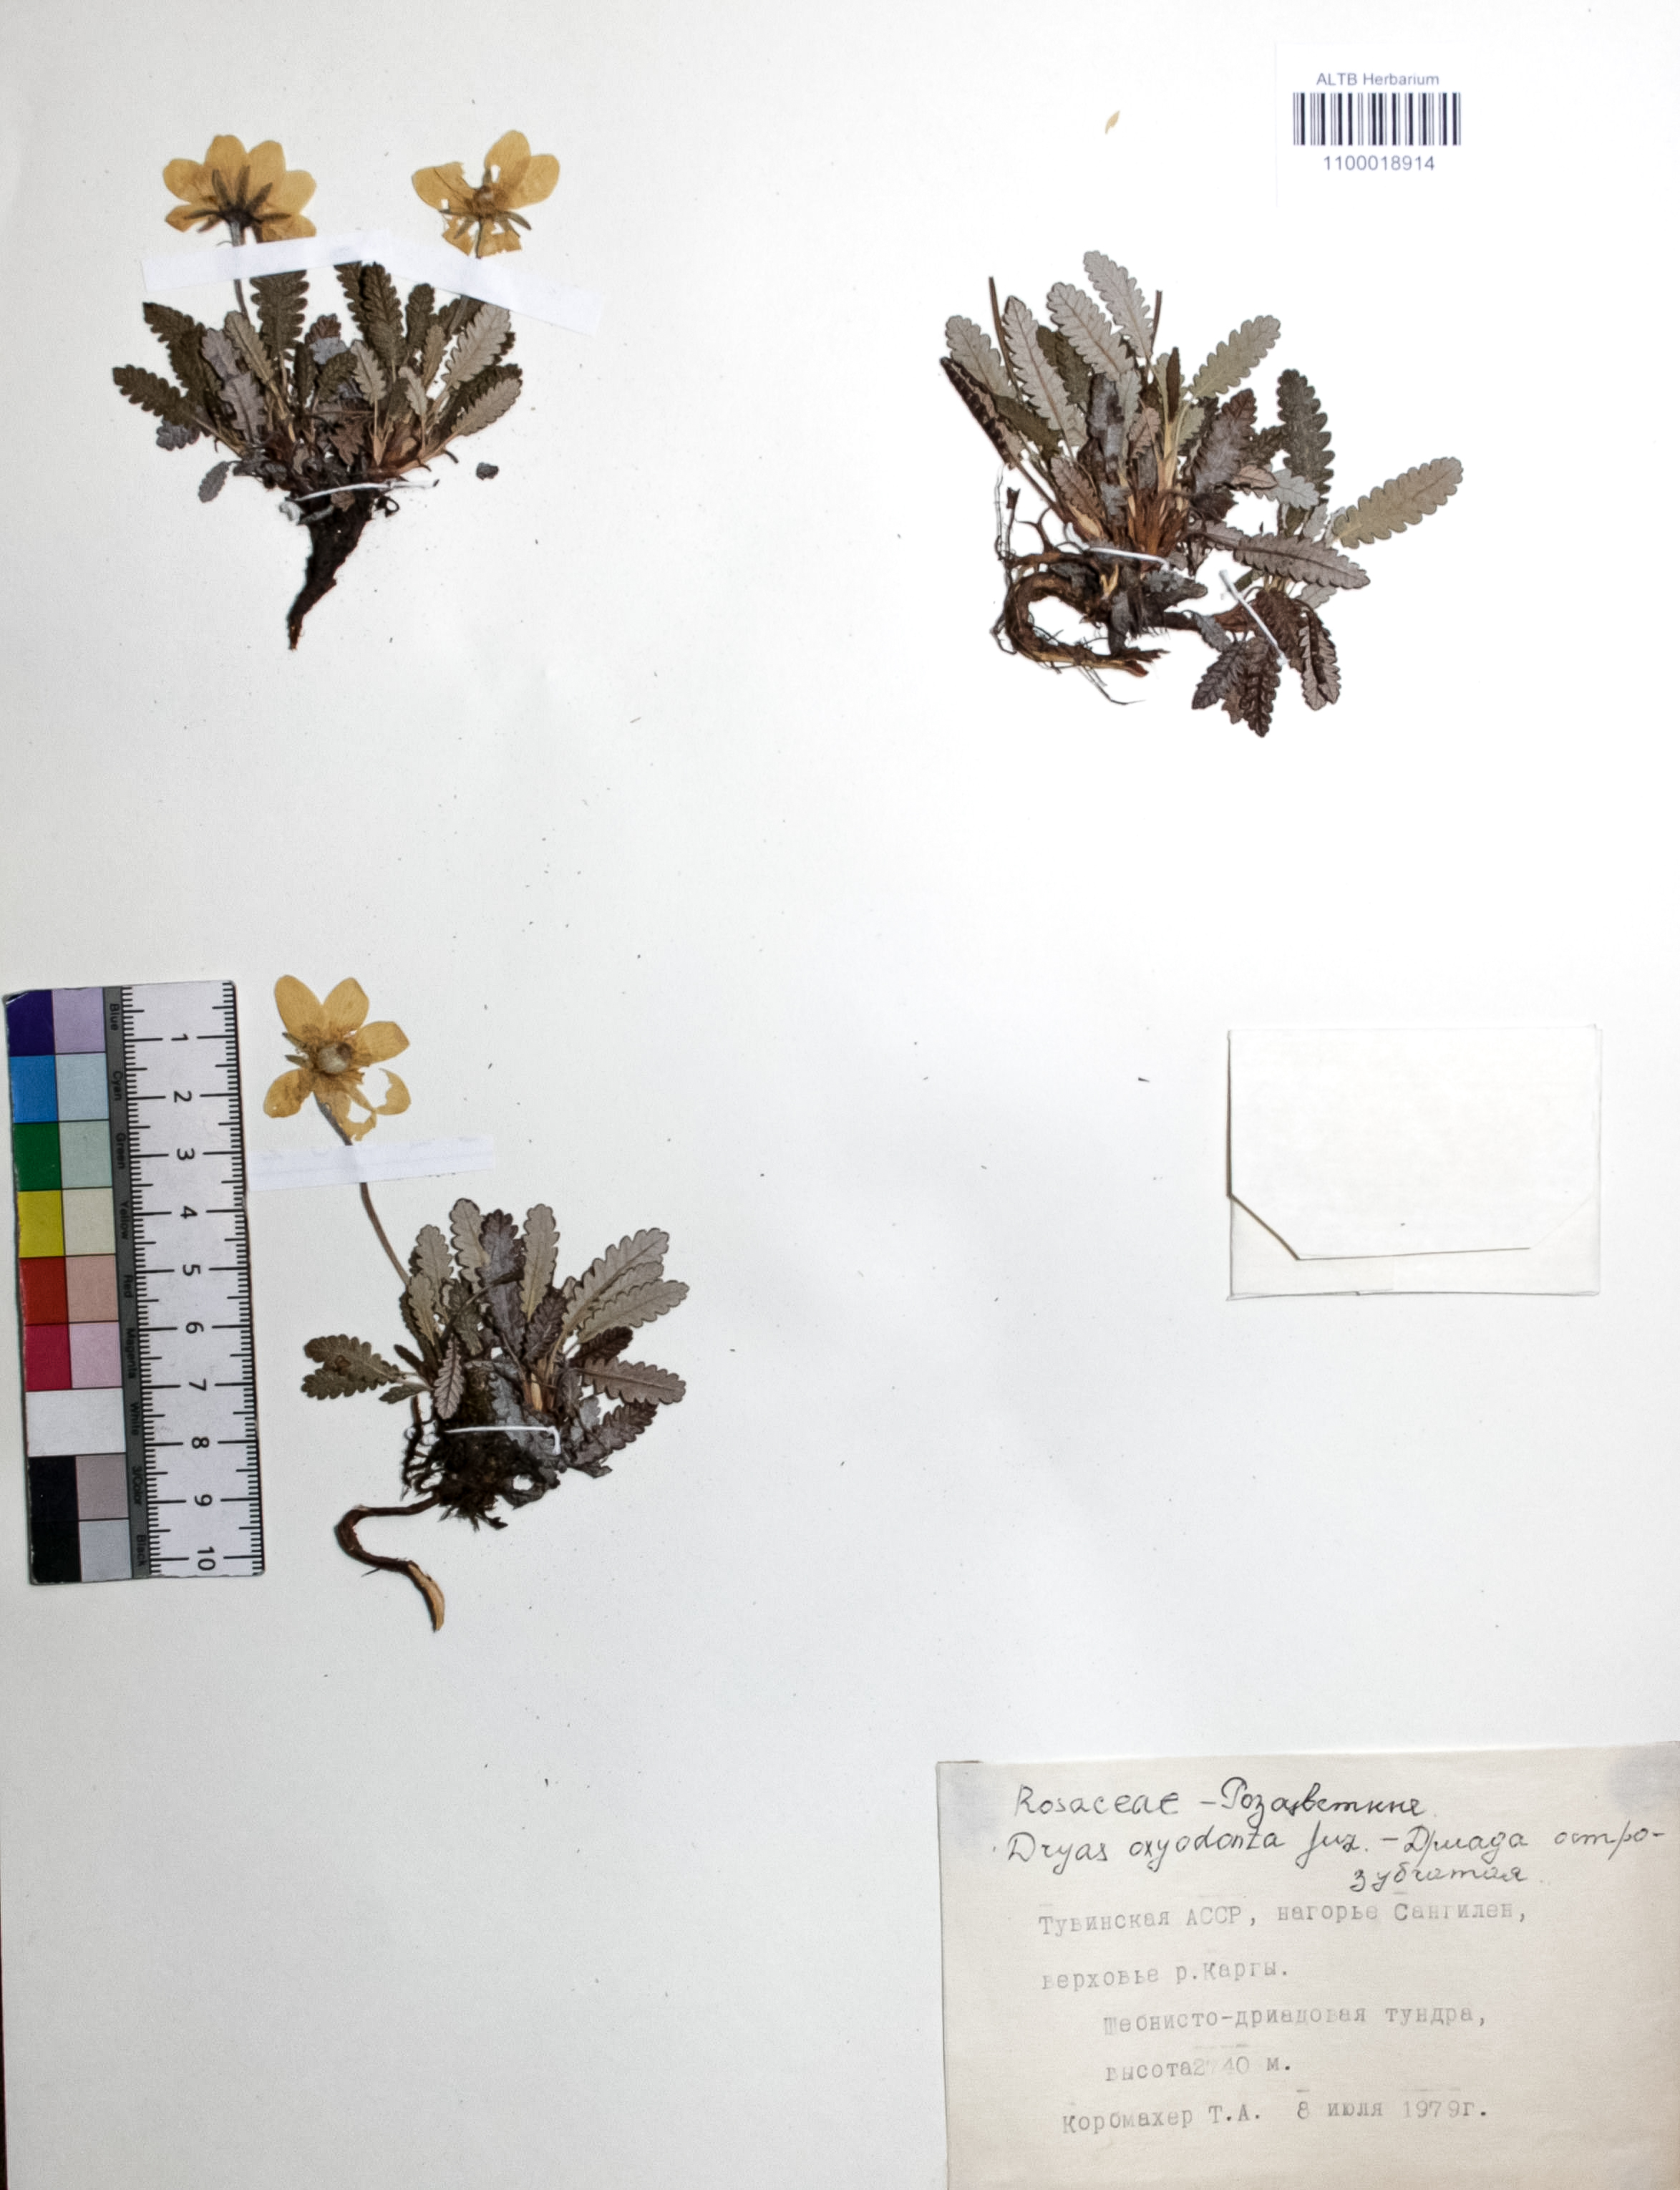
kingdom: Plantae
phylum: Tracheophyta
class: Magnoliopsida
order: Rosales
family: Rosaceae
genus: Dryas
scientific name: Dryas octopetala
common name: Eight-petal mountain-avens
